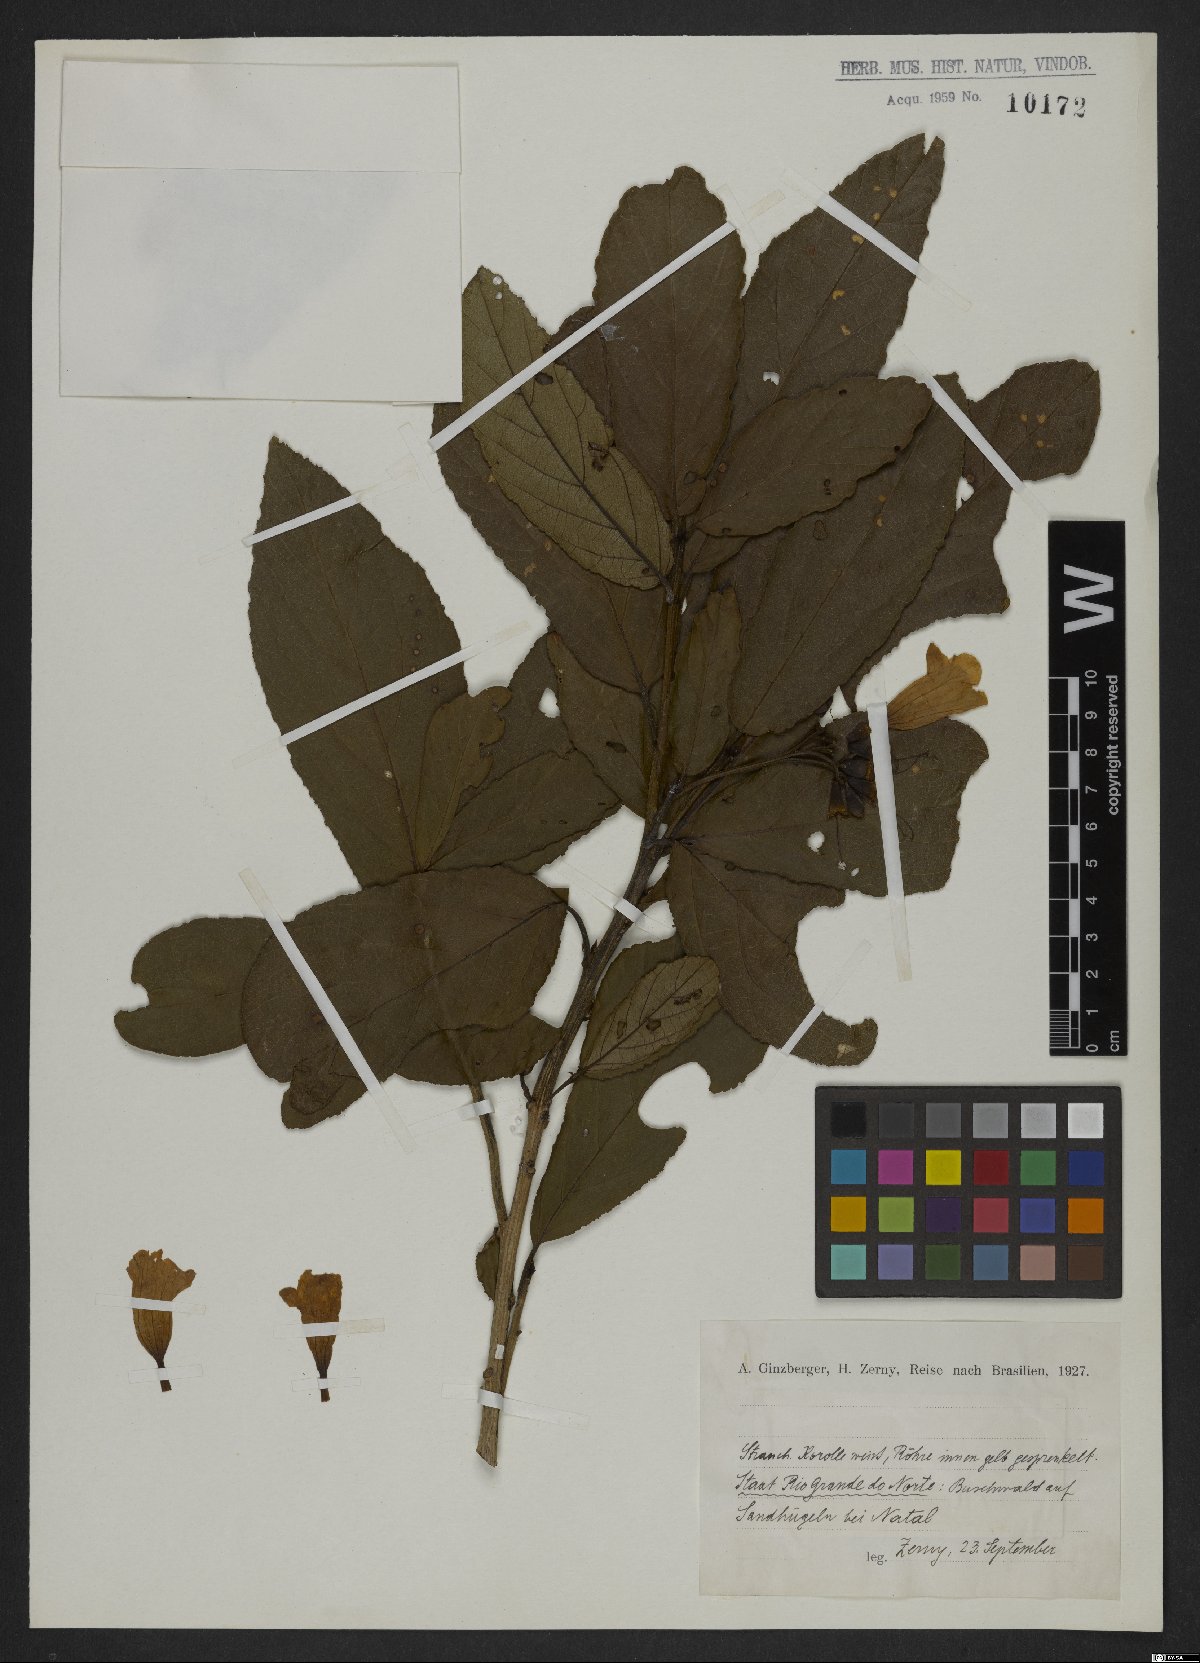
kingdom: Plantae
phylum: Tracheophyta
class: Magnoliopsida
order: Boraginales
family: Boraginaceae
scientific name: Boraginaceae
